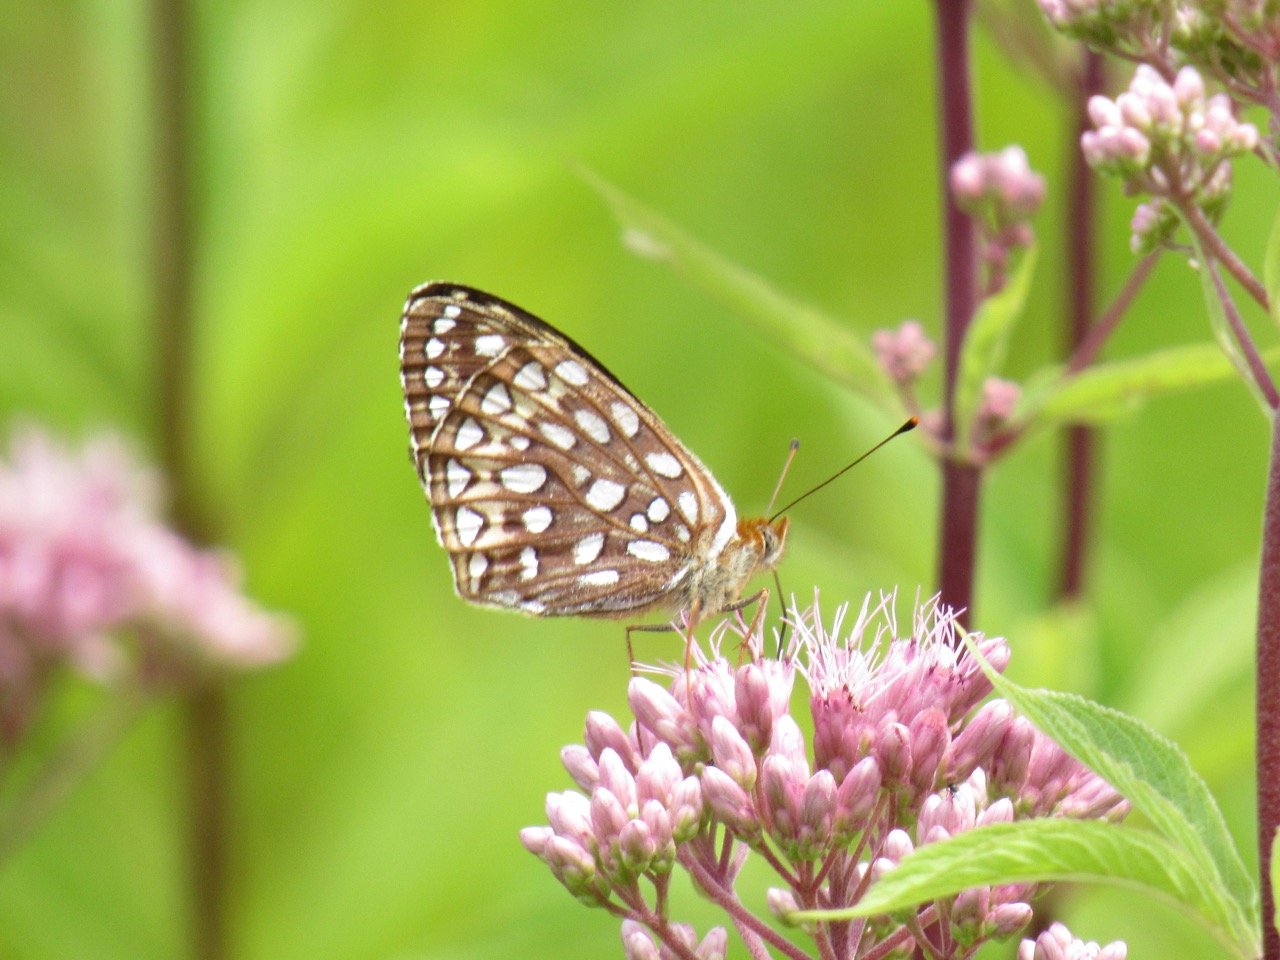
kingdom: Animalia
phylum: Arthropoda
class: Insecta
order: Lepidoptera
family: Nymphalidae
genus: Speyeria
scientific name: Speyeria atlantis
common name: Atlantis Fritillary
